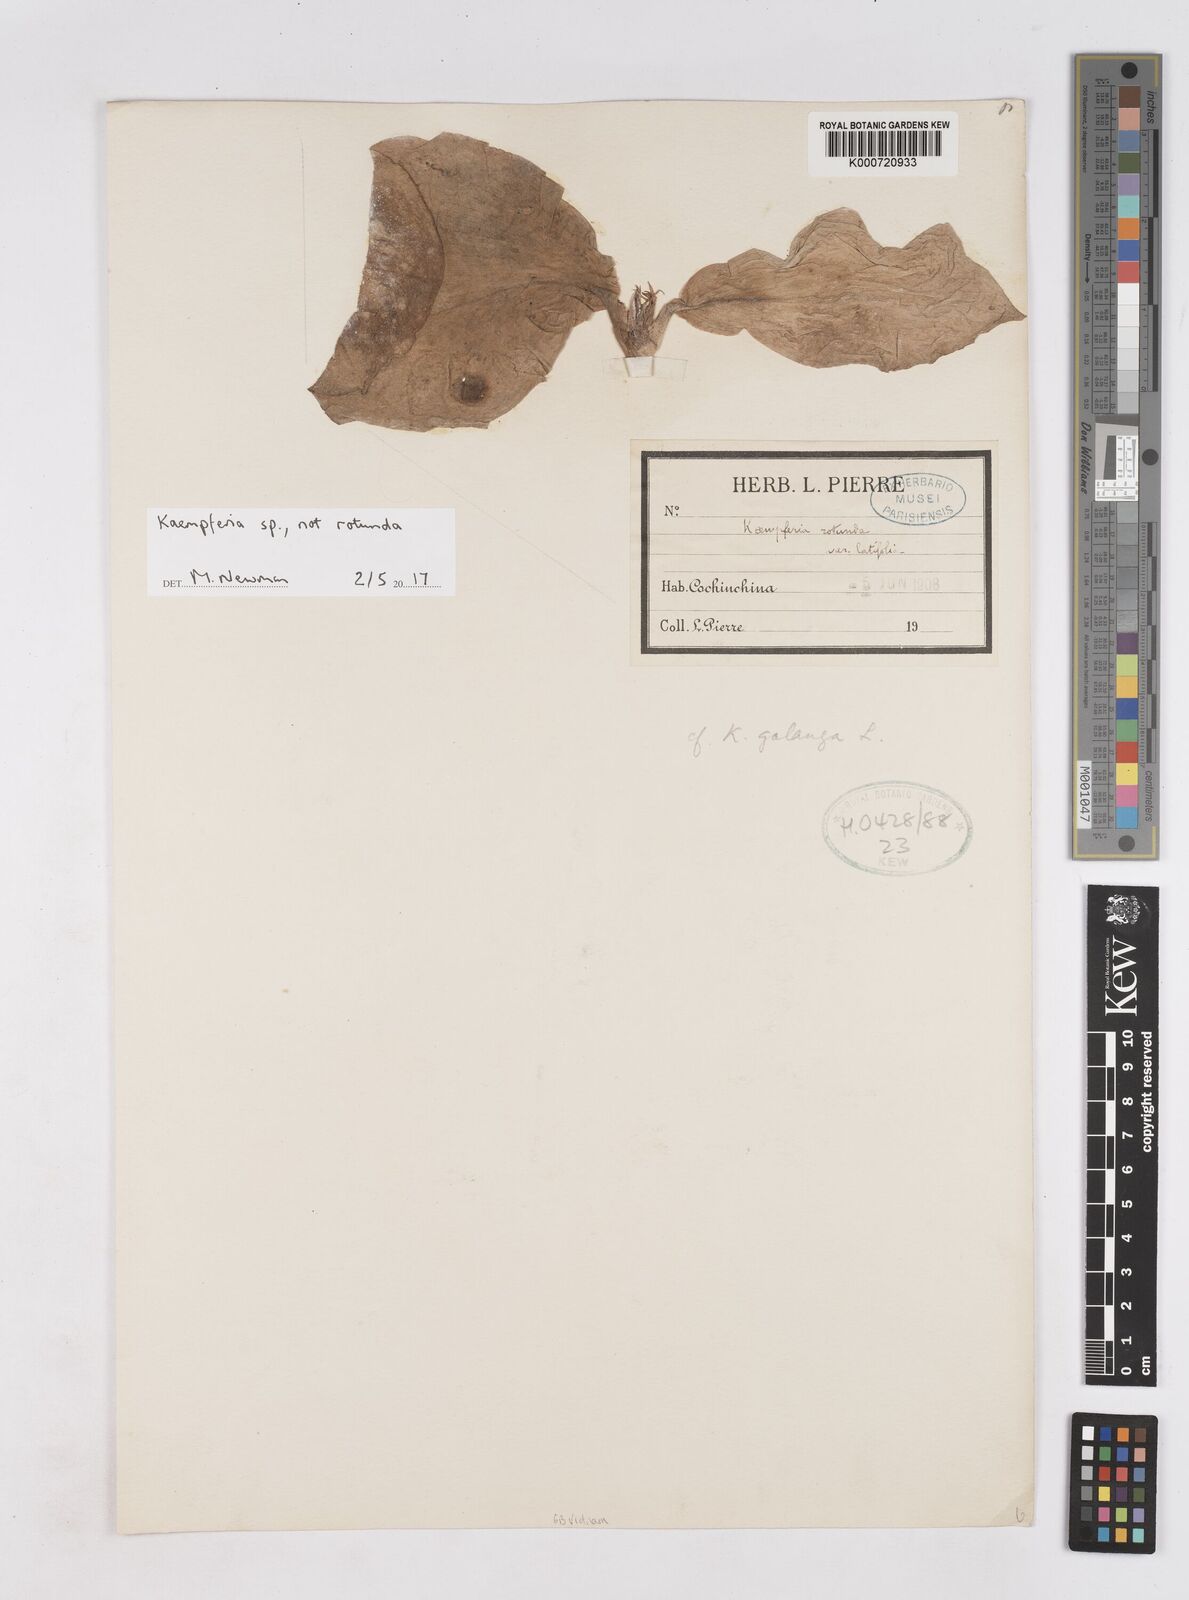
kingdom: Plantae
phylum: Tracheophyta
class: Liliopsida
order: Zingiberales
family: Zingiberaceae
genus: Kaempferia
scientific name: Kaempferia
